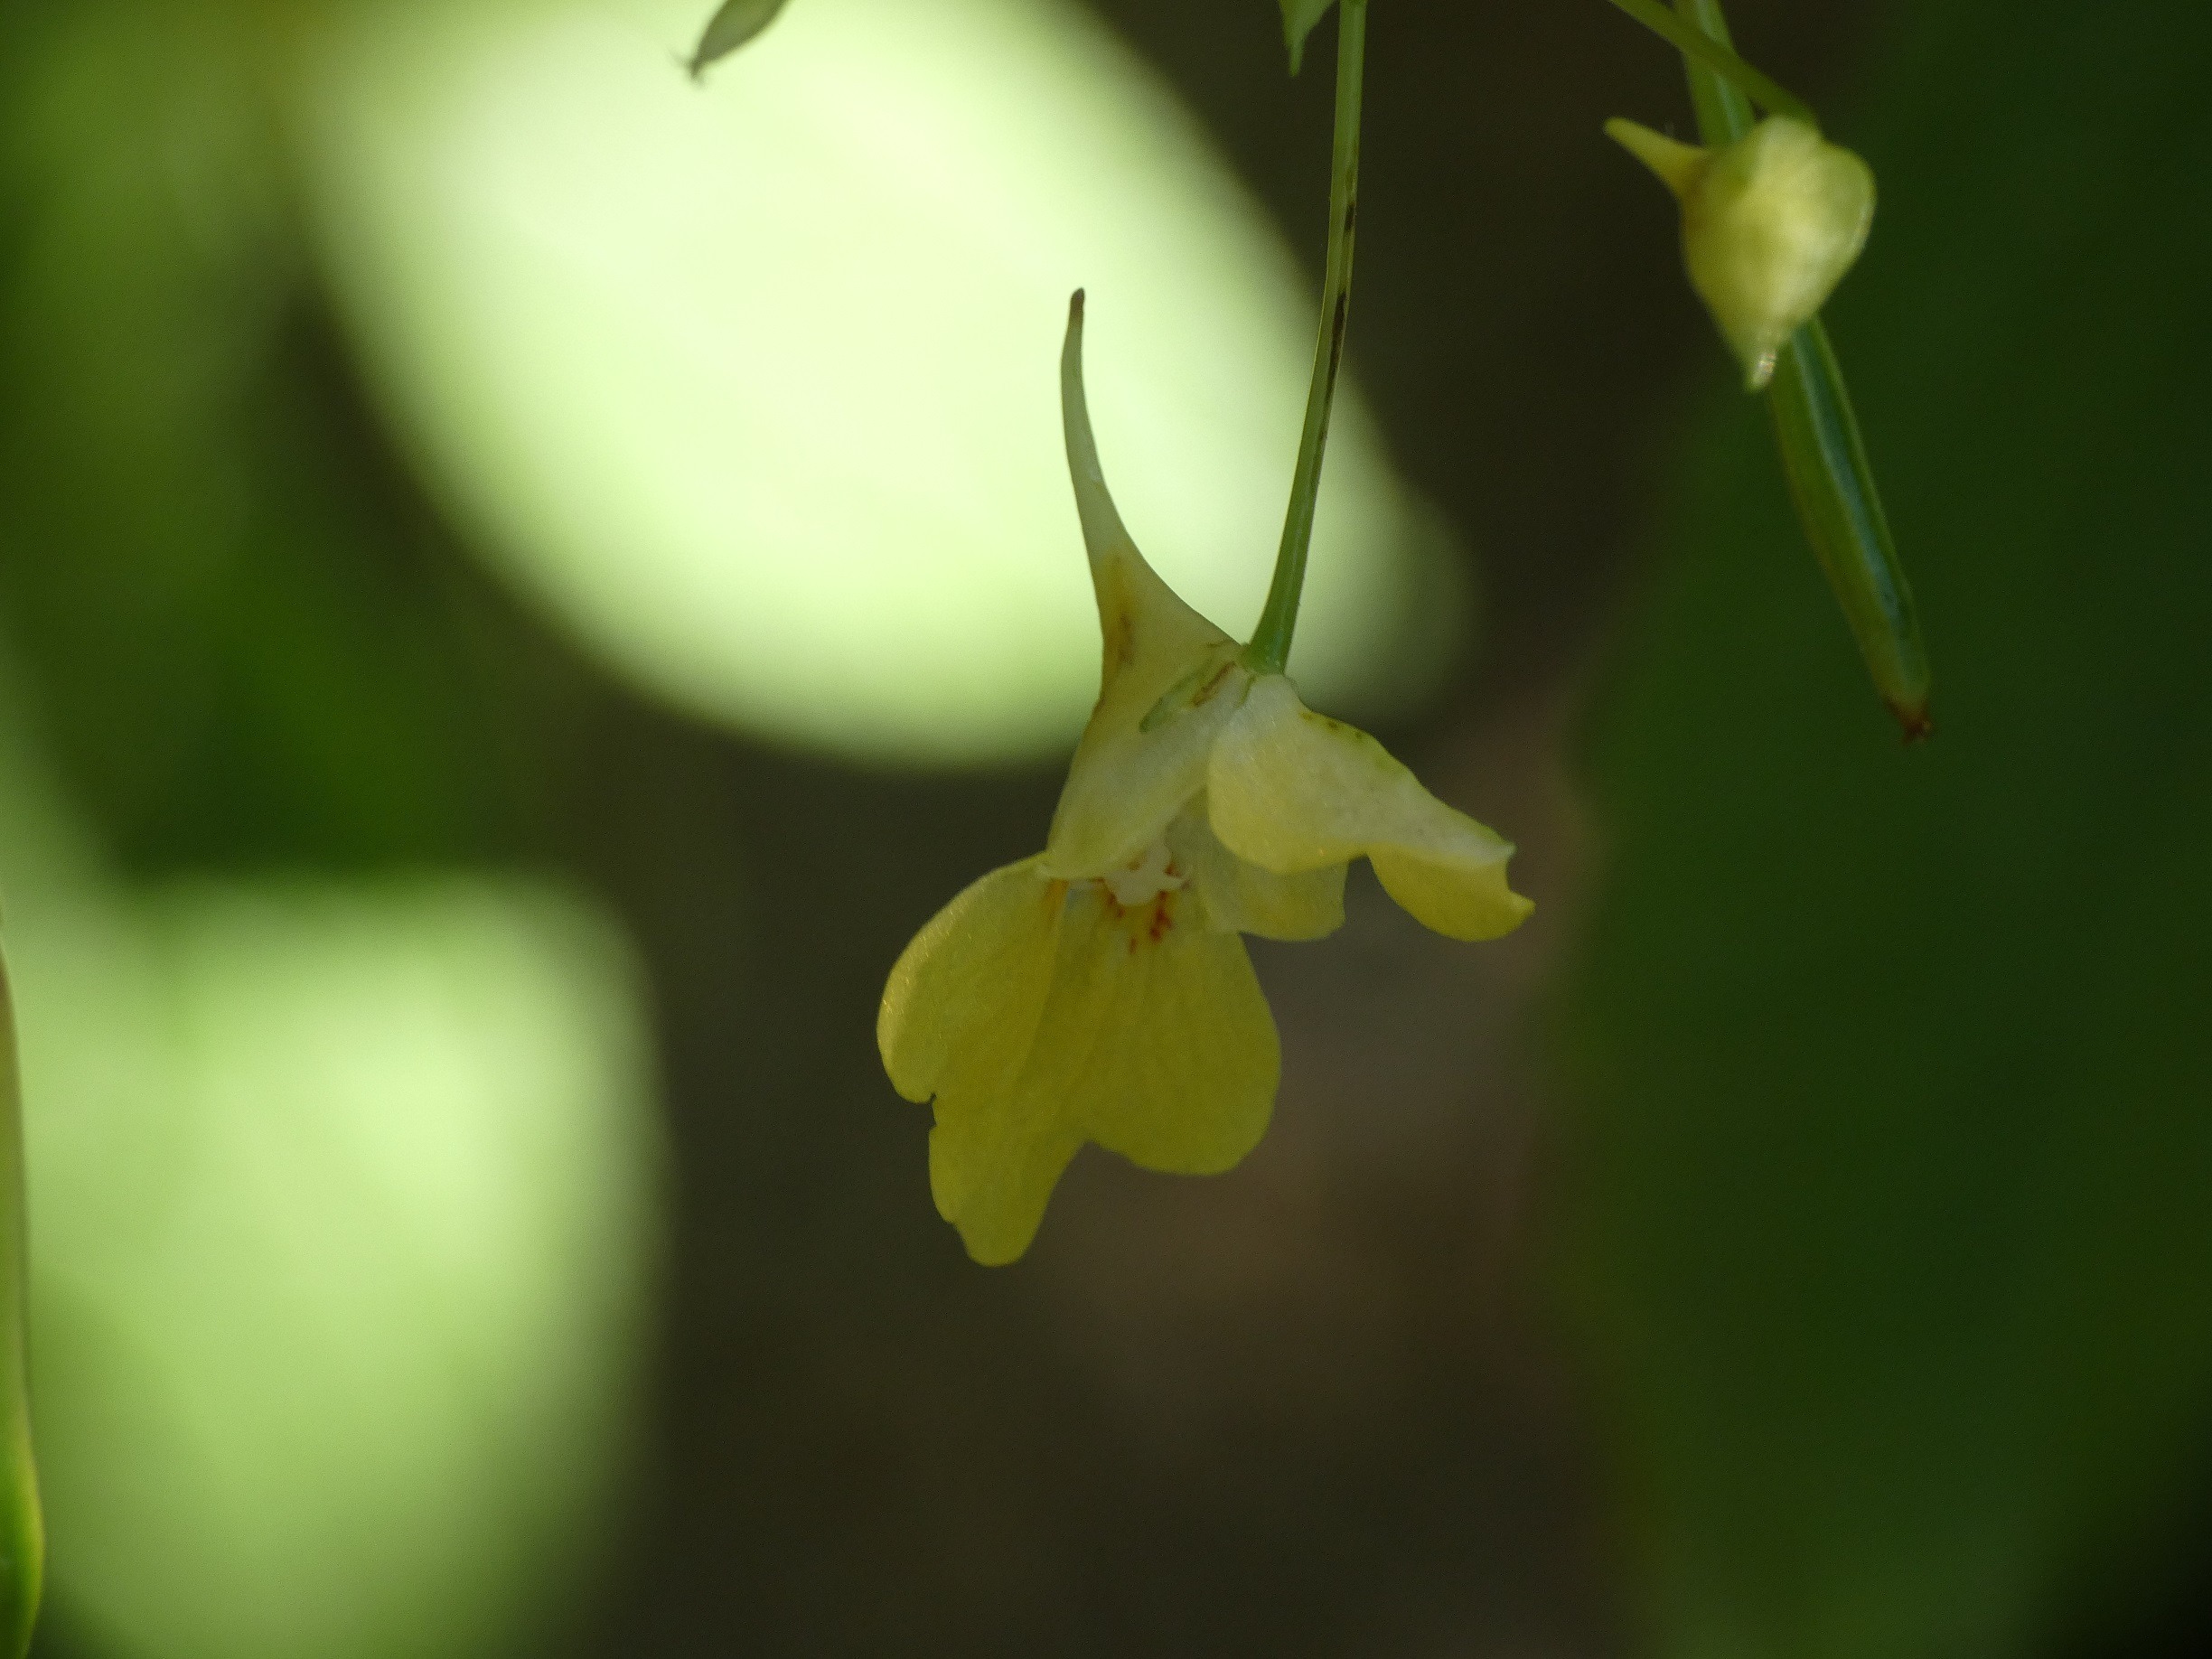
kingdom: Plantae
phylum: Tracheophyta
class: Magnoliopsida
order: Ericales
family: Balsaminaceae
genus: Impatiens
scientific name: Impatiens parviflora
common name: Småblomstret balsamin
